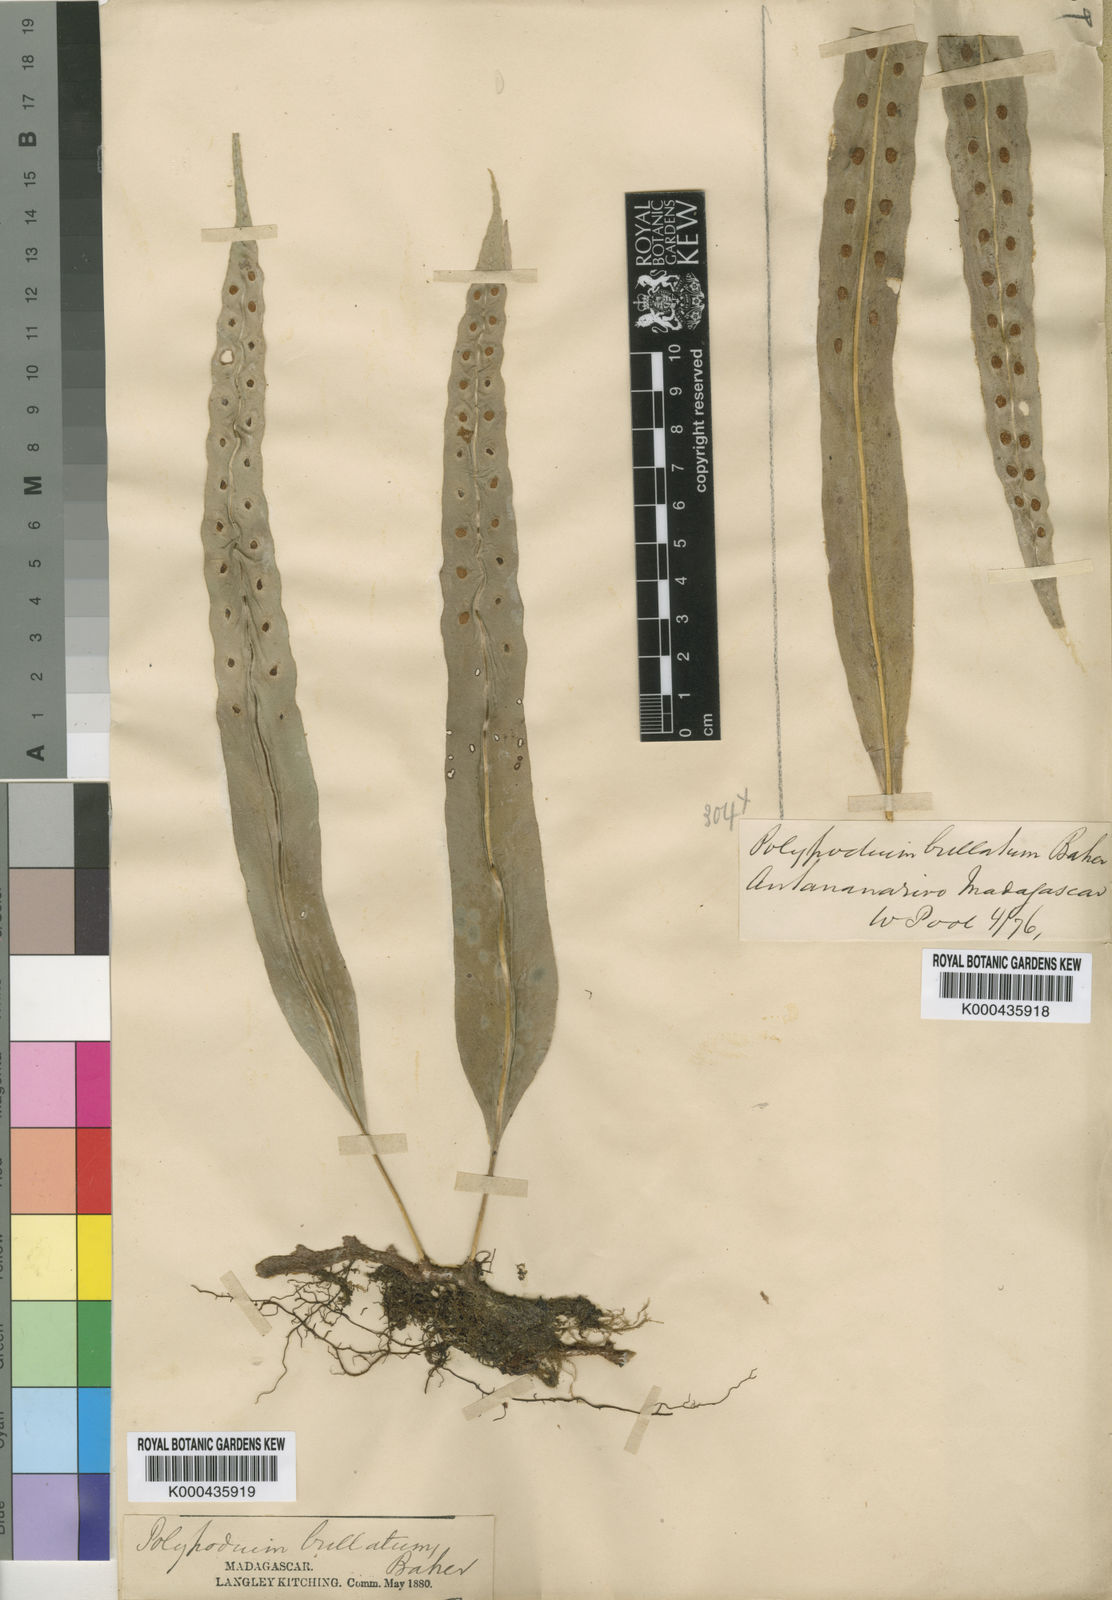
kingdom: Plantae
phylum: Tracheophyta
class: Polypodiopsida
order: Polypodiales
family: Polypodiaceae
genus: Lepisorus
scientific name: Lepisorus excavatus
